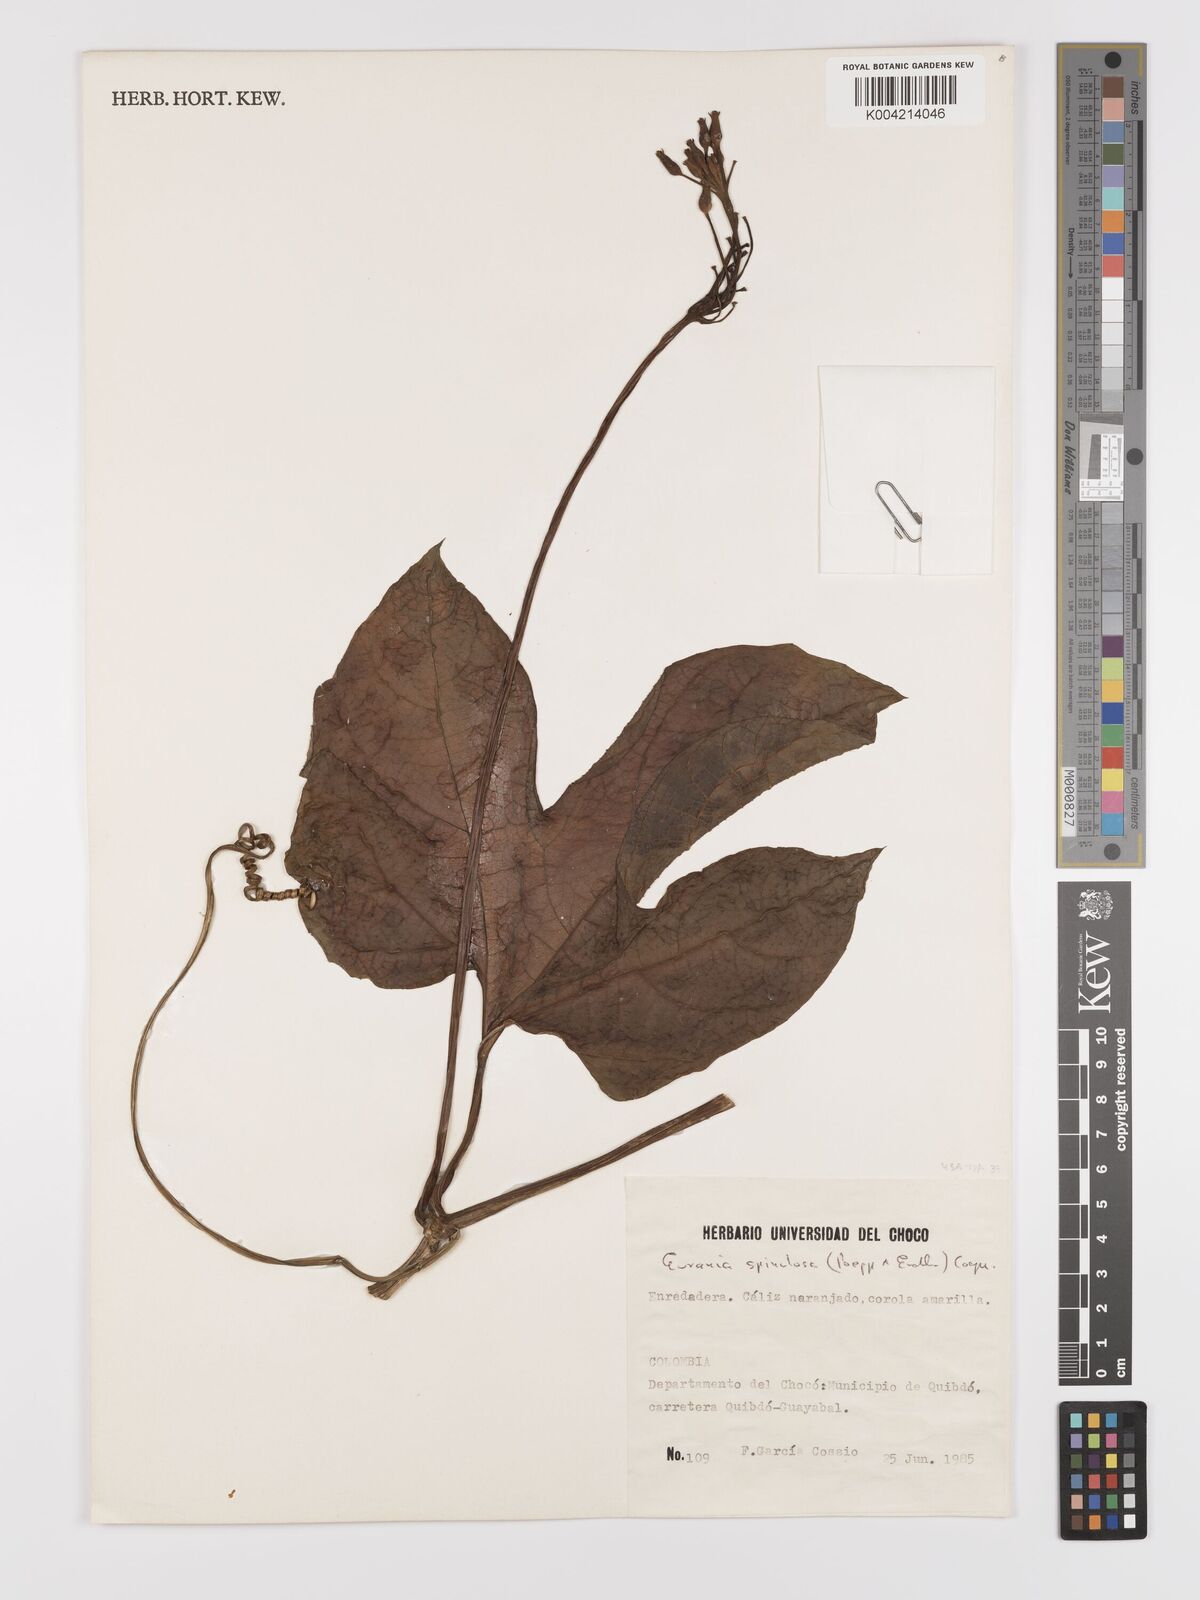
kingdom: Plantae
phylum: Tracheophyta
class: Magnoliopsida
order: Cucurbitales
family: Cucurbitaceae
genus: Gurania
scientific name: Gurania lobata
